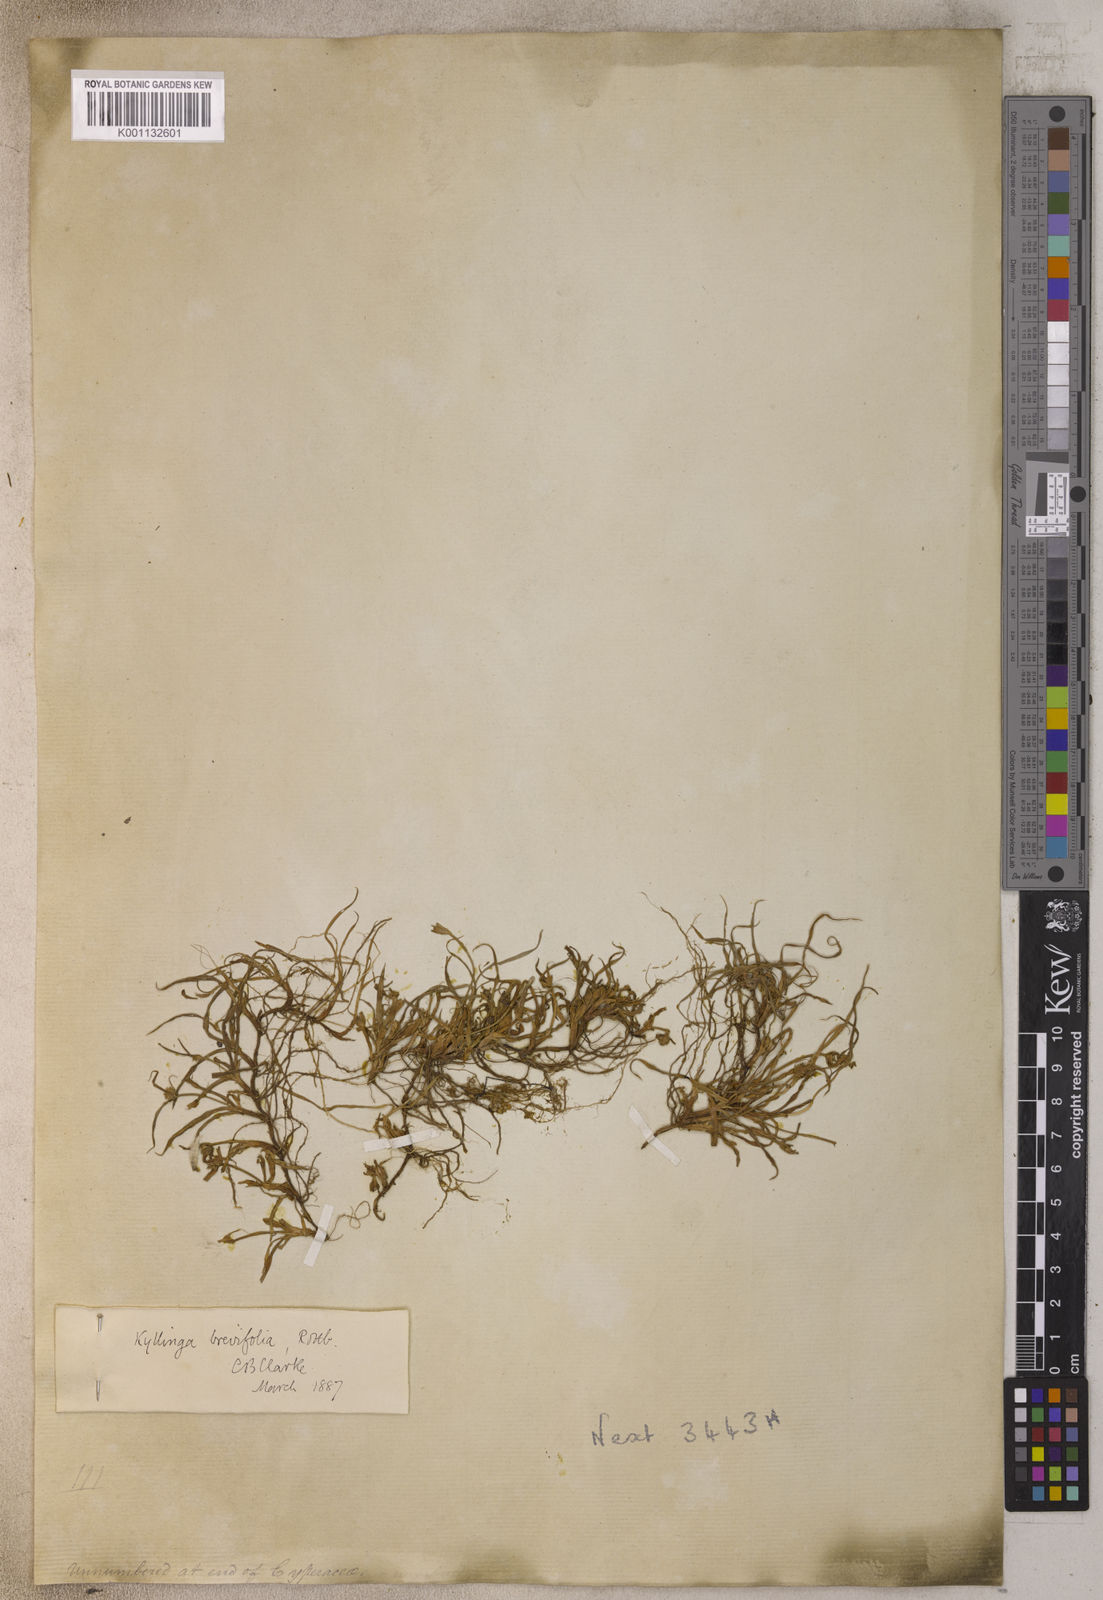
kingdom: Plantae
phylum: Tracheophyta
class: Liliopsida
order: Poales
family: Cyperaceae
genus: Cyperus
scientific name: Cyperus brevifolius
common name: Globe kyllinga
